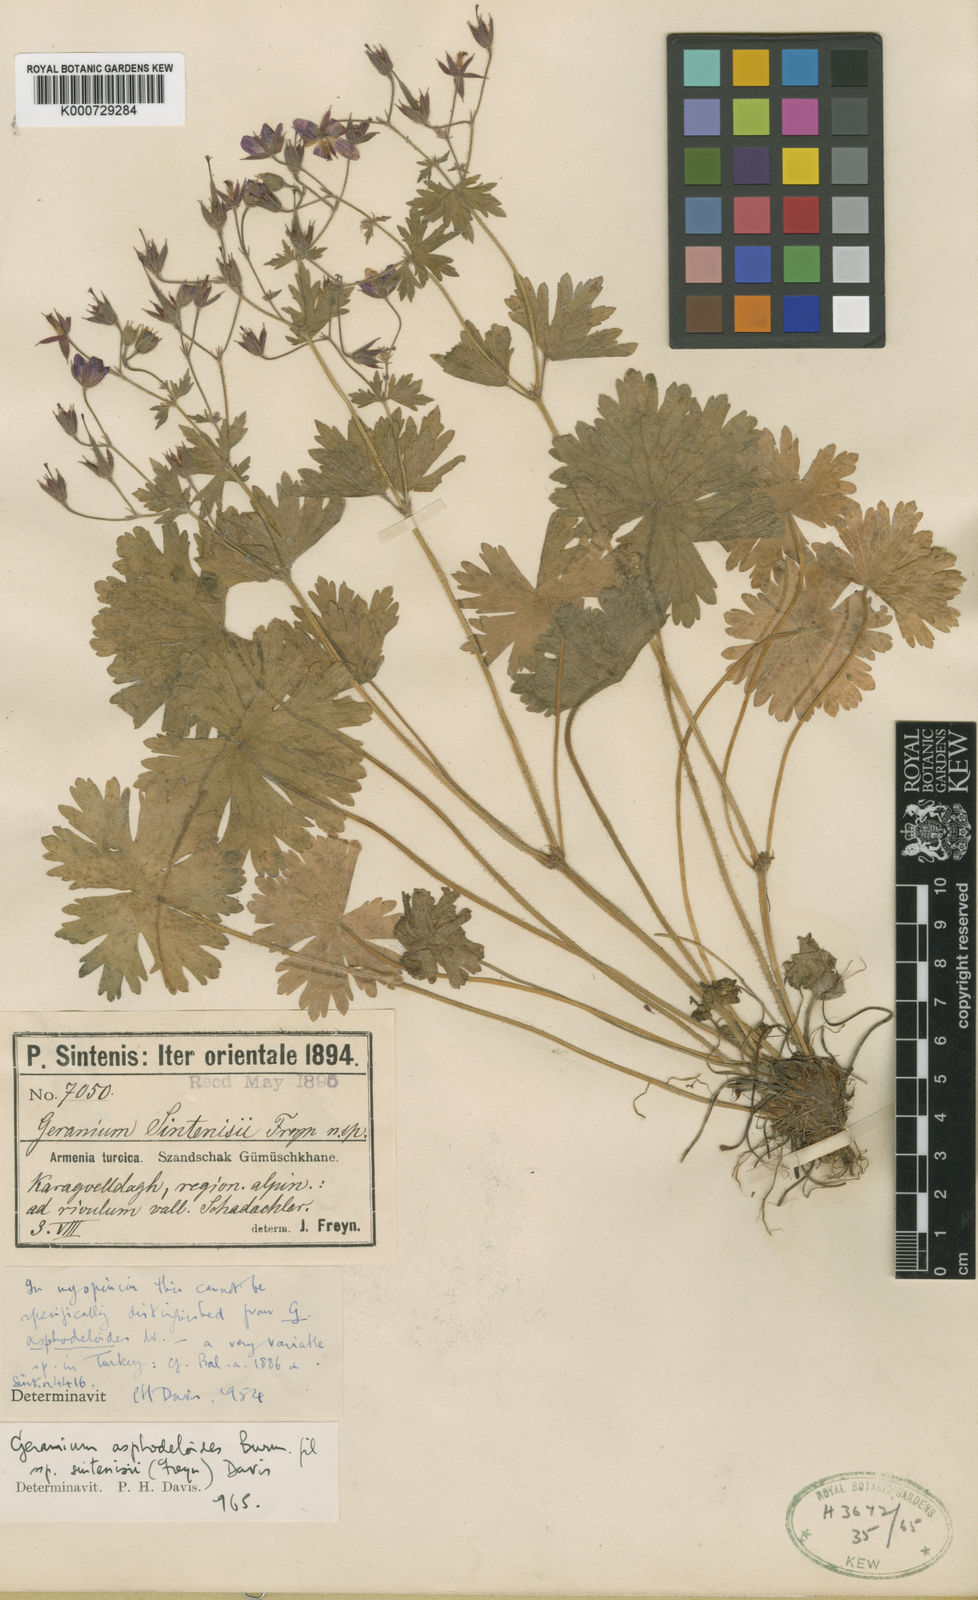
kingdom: Plantae
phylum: Tracheophyta
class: Magnoliopsida
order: Geraniales
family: Geraniaceae
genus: Geranium
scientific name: Geranium asphodeloides
